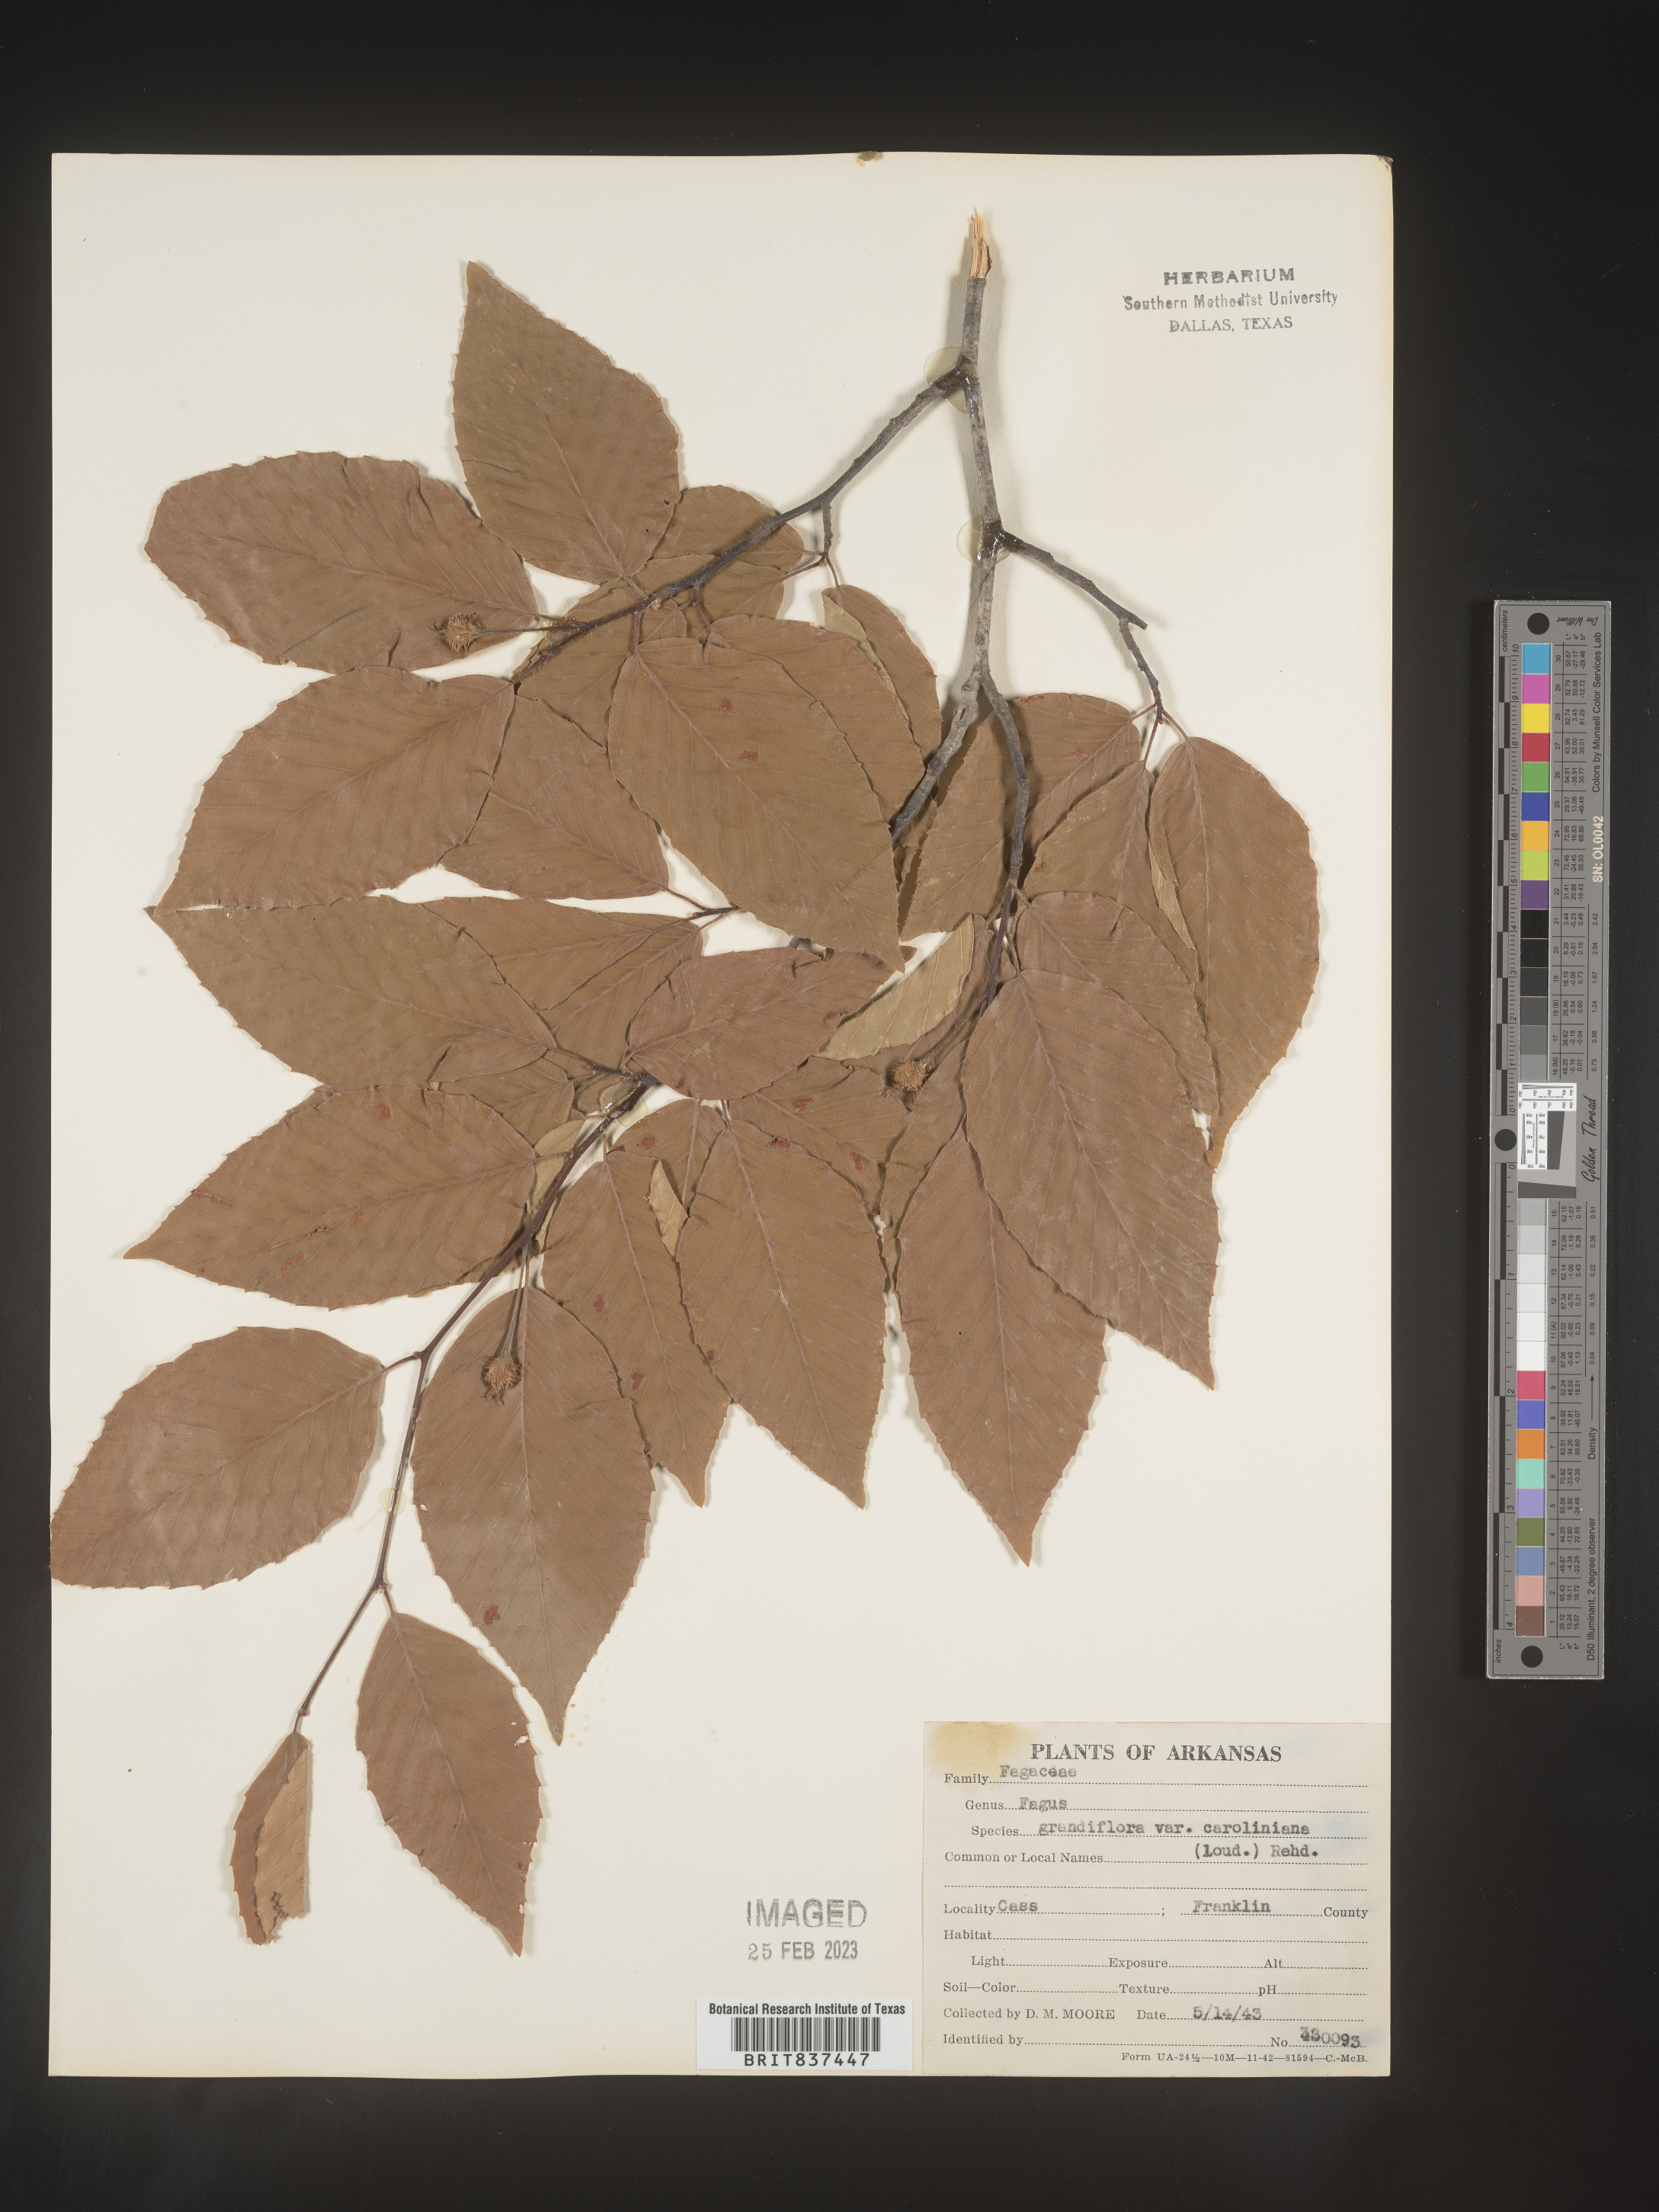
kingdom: Plantae
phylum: Tracheophyta
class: Magnoliopsida
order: Fagales
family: Fagaceae
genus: Fagus
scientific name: Fagus grandifolia
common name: American beech
